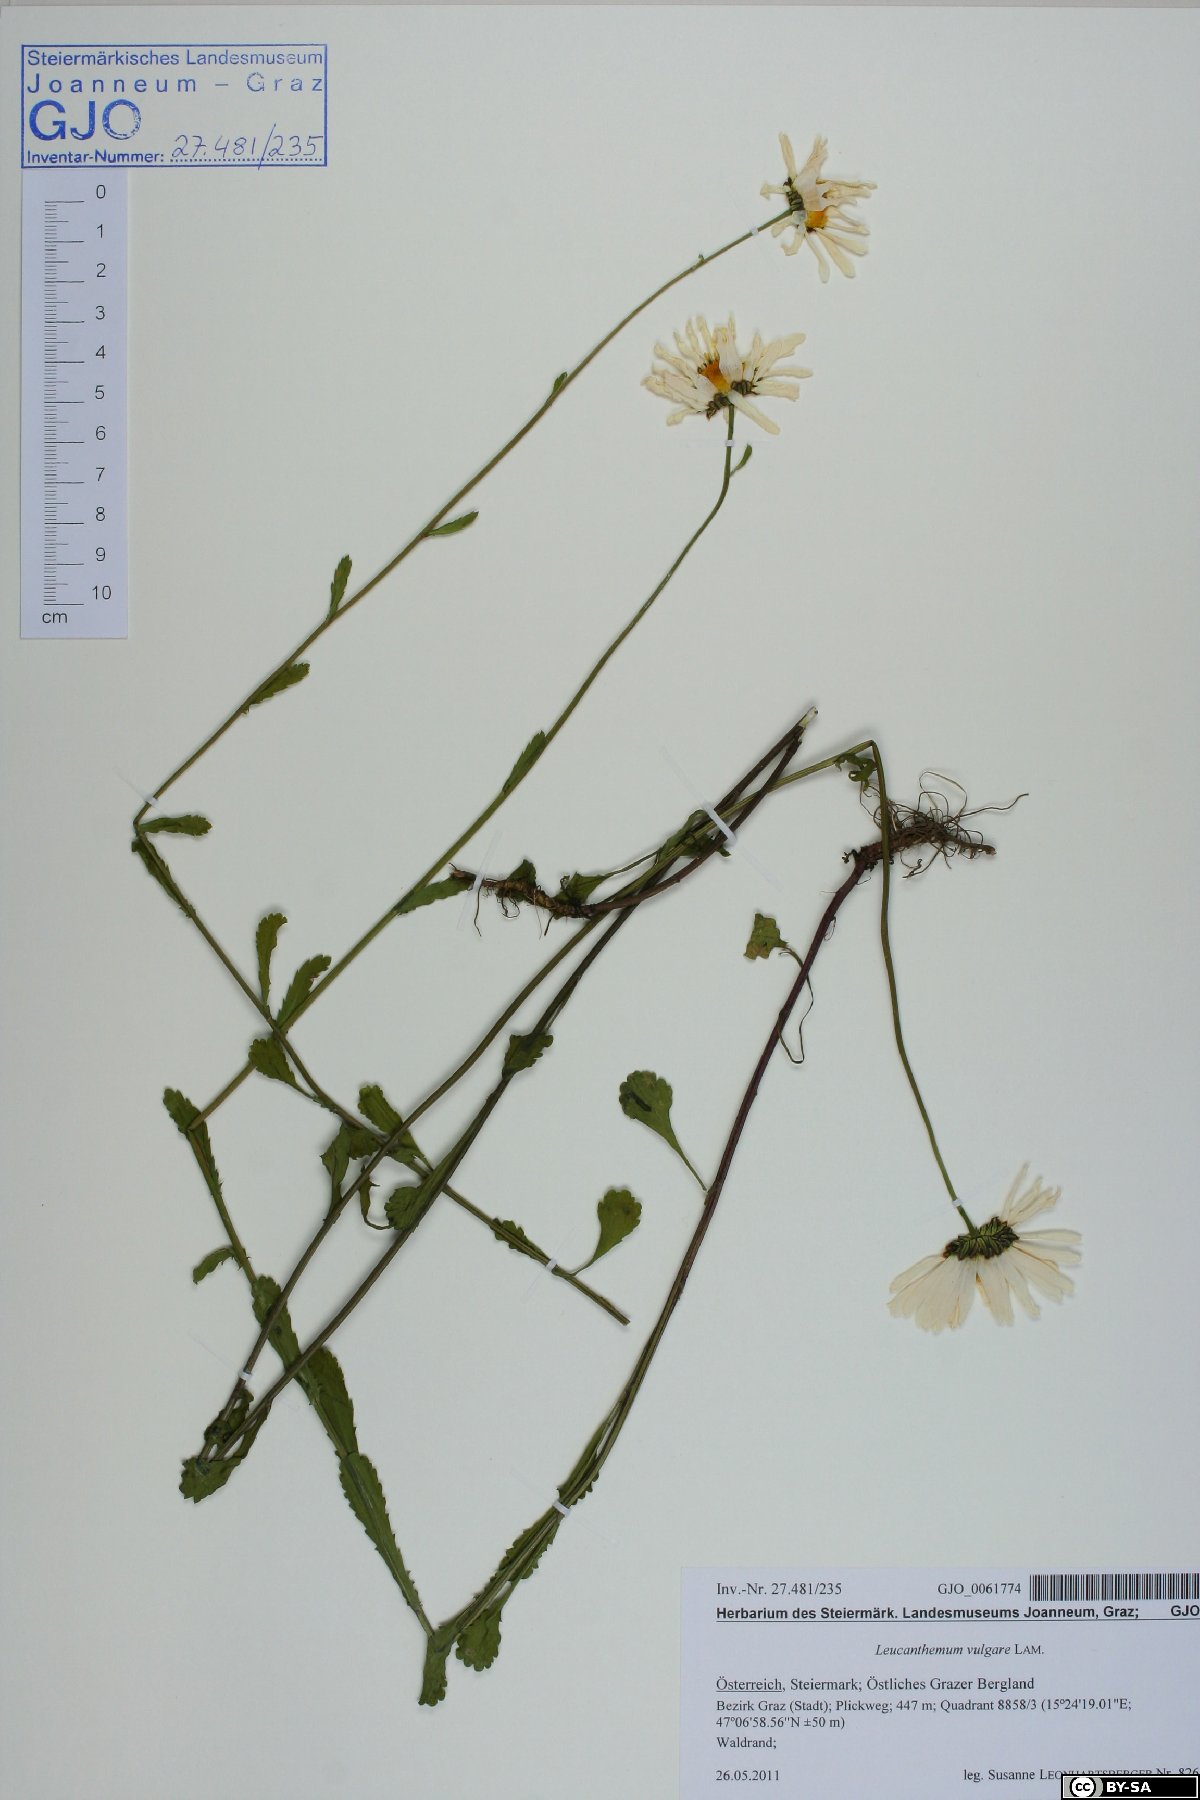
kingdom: Plantae
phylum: Tracheophyta
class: Magnoliopsida
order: Asterales
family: Asteraceae
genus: Leucanthemum
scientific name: Leucanthemum vulgare
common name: Oxeye daisy
